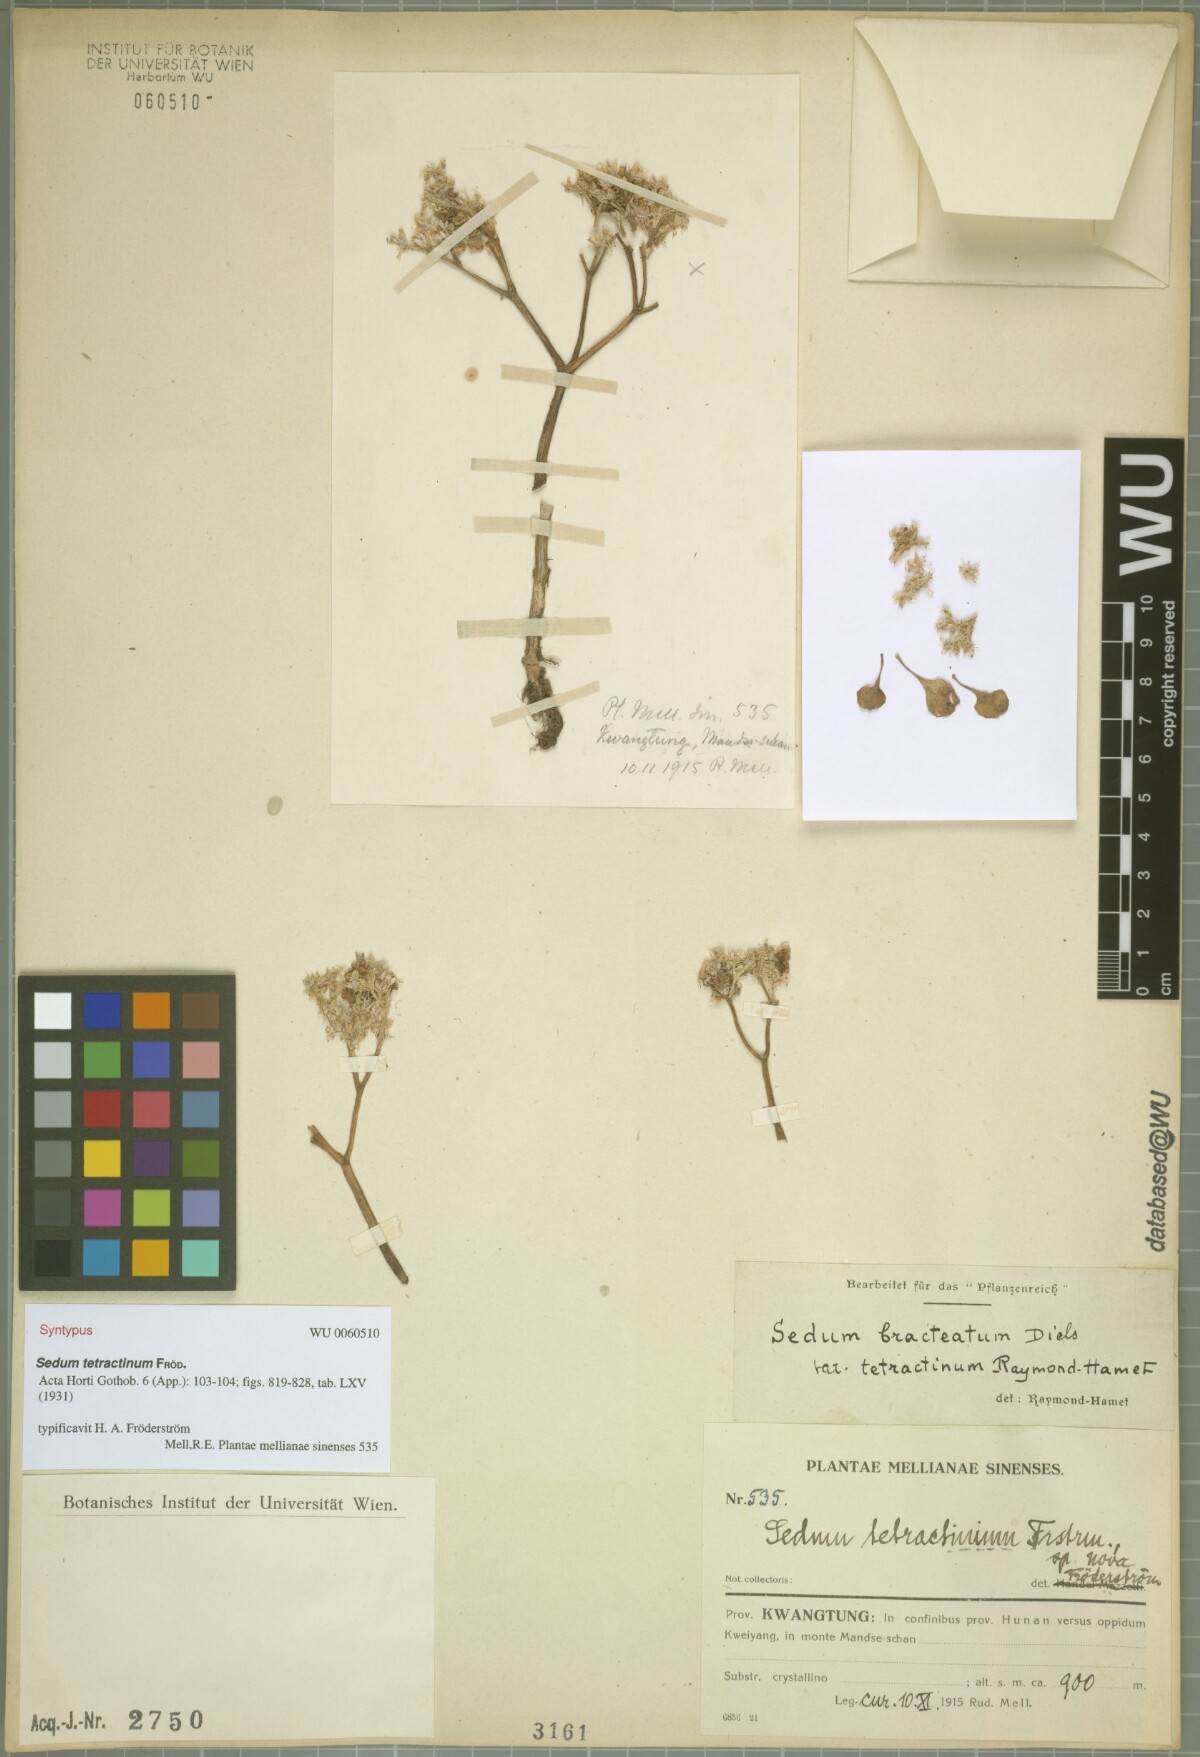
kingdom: Plantae
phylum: Tracheophyta
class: Magnoliopsida
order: Saxifragales
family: Crassulaceae
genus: Sedum
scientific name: Sedum tetractinum
